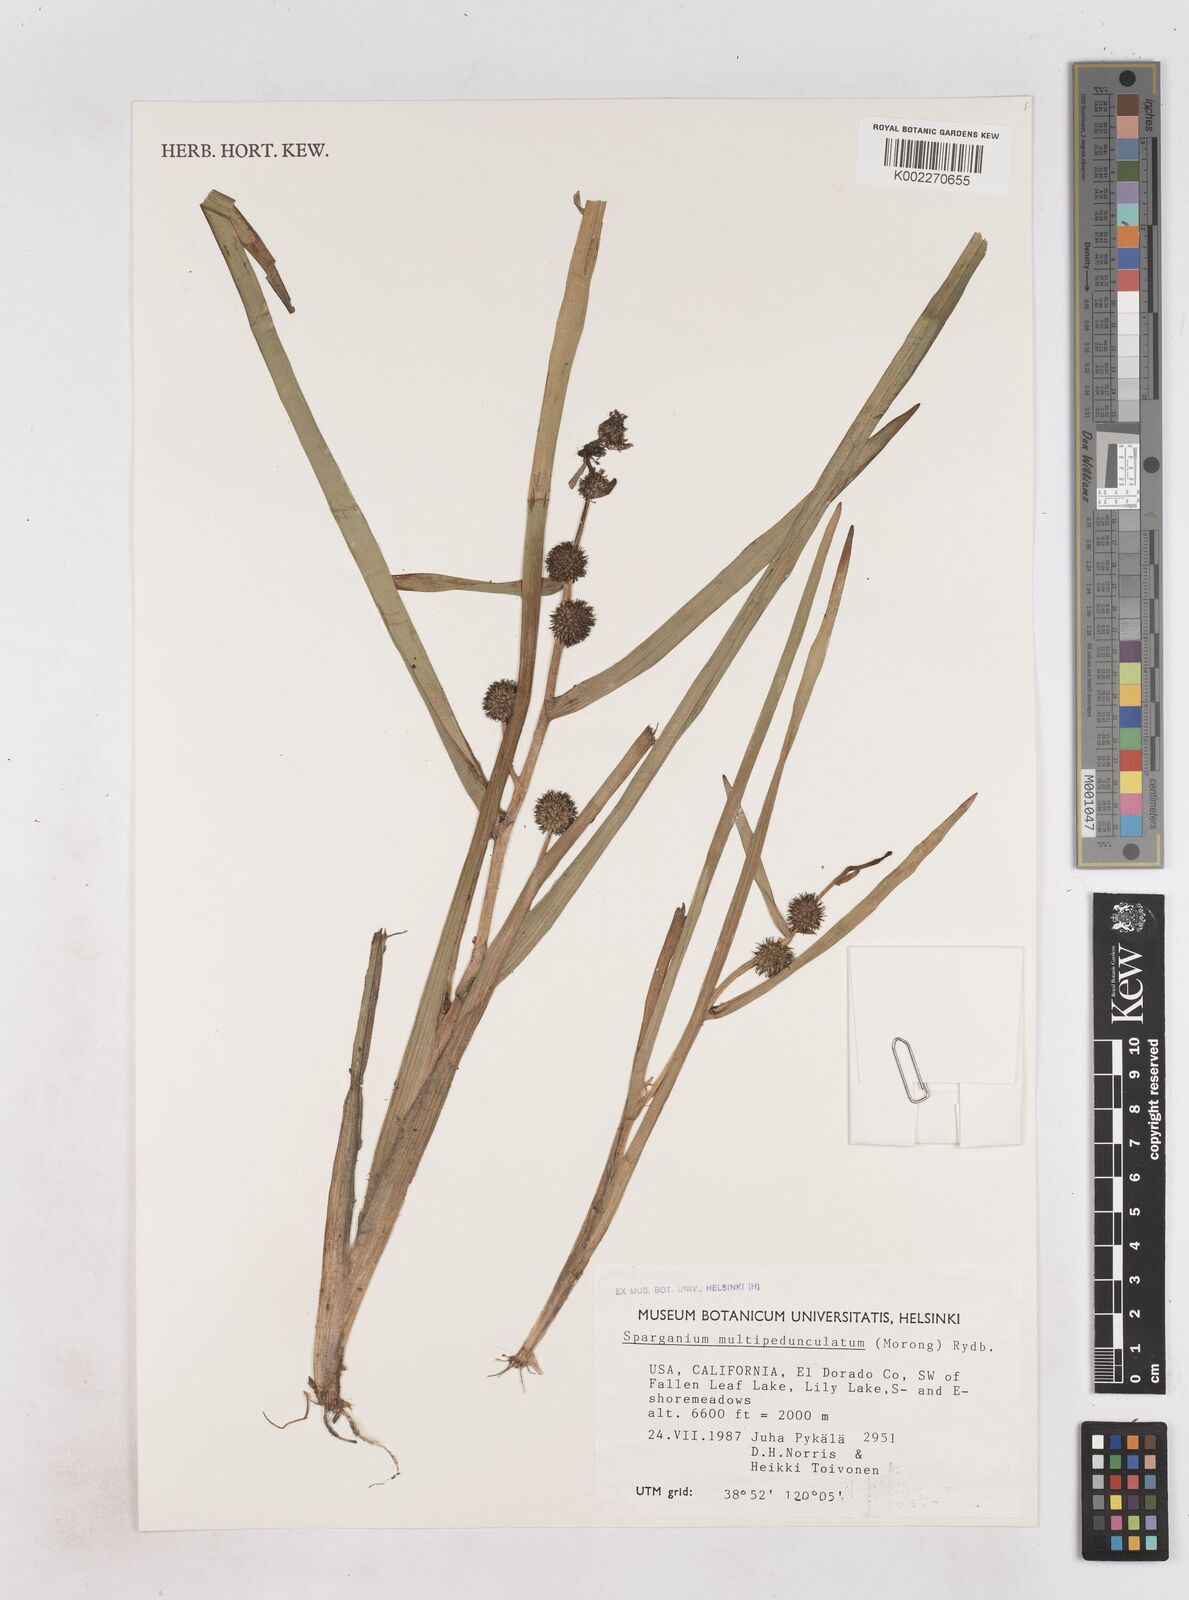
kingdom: Plantae
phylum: Tracheophyta
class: Liliopsida
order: Poales
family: Typhaceae
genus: Sparganium
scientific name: Sparganium emersum
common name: Unbranched bur-reed
